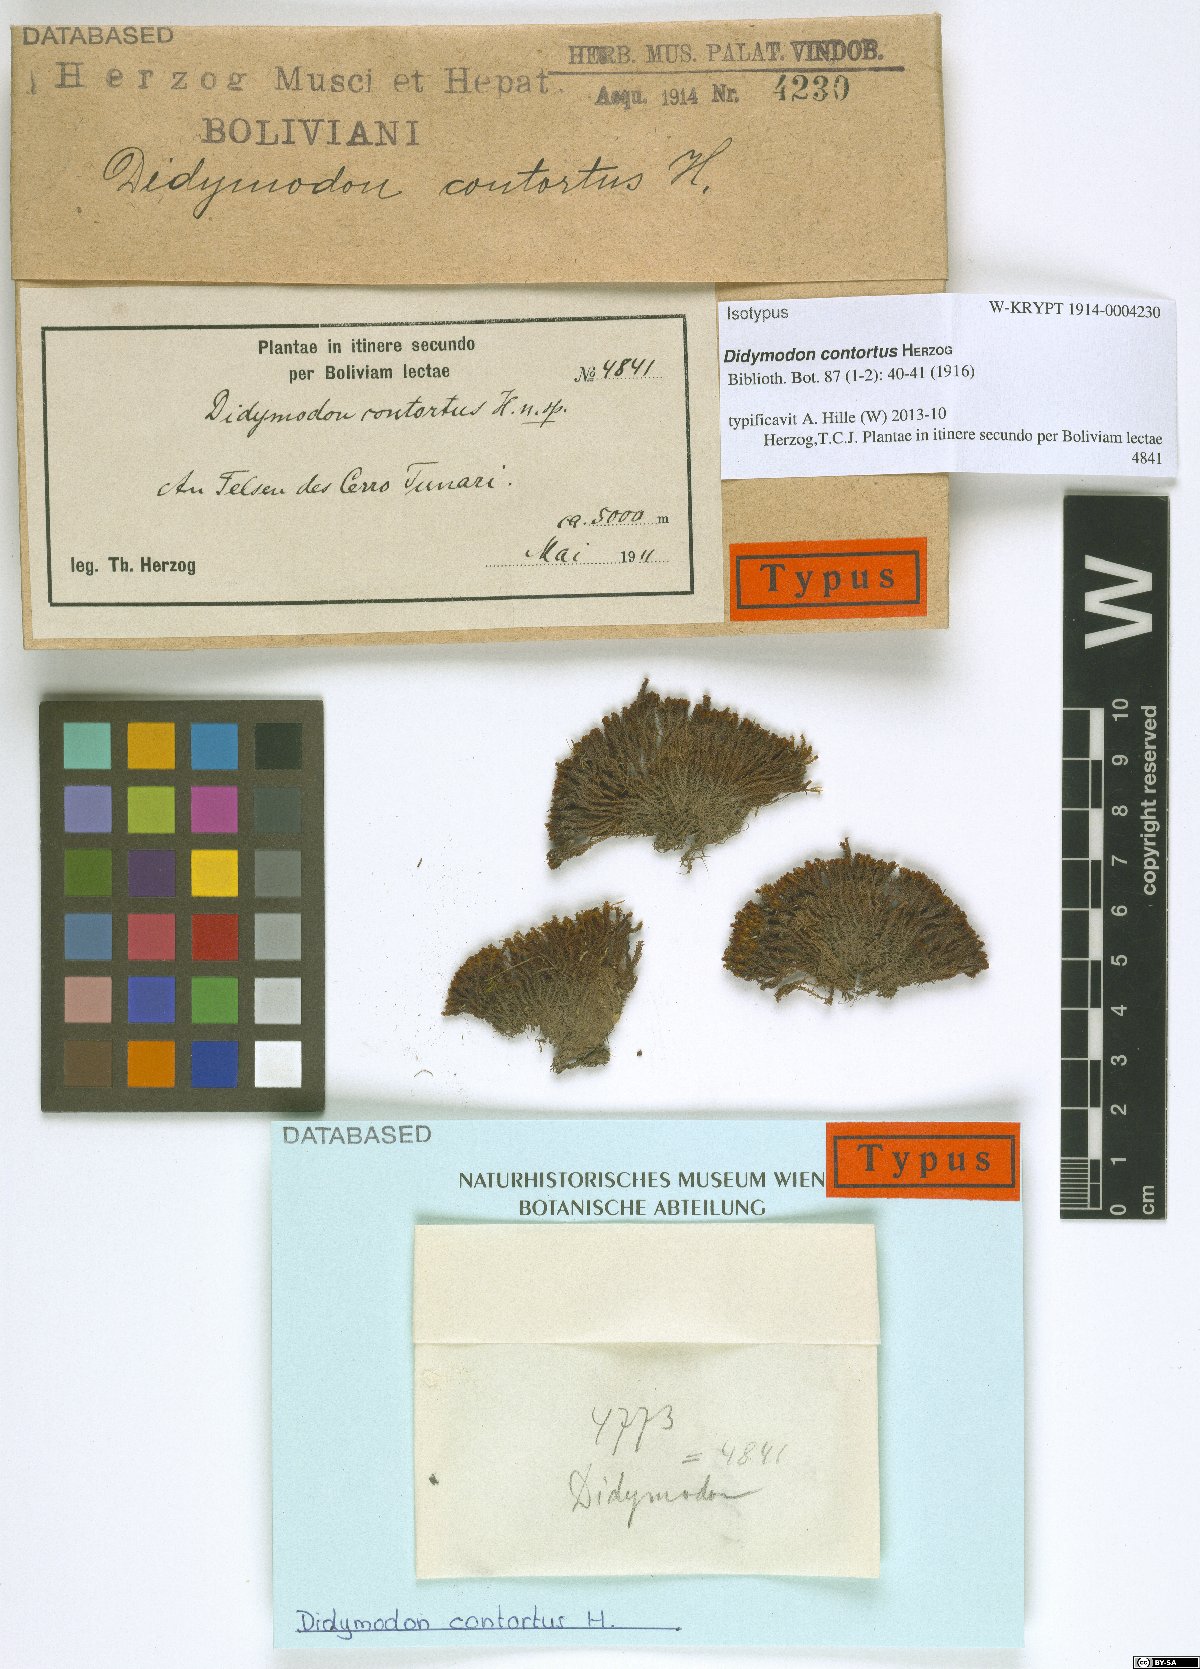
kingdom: Plantae
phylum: Bryophyta
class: Bryopsida
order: Pottiales
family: Pottiaceae
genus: Didymodon
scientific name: Didymodon contortus
